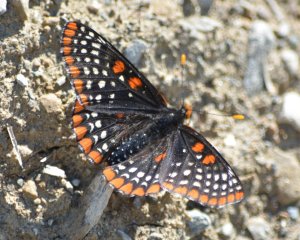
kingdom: Animalia
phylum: Arthropoda
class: Insecta
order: Lepidoptera
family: Nymphalidae
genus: Euphydryas
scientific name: Euphydryas phaeton
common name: Baltimore Checkerspot
